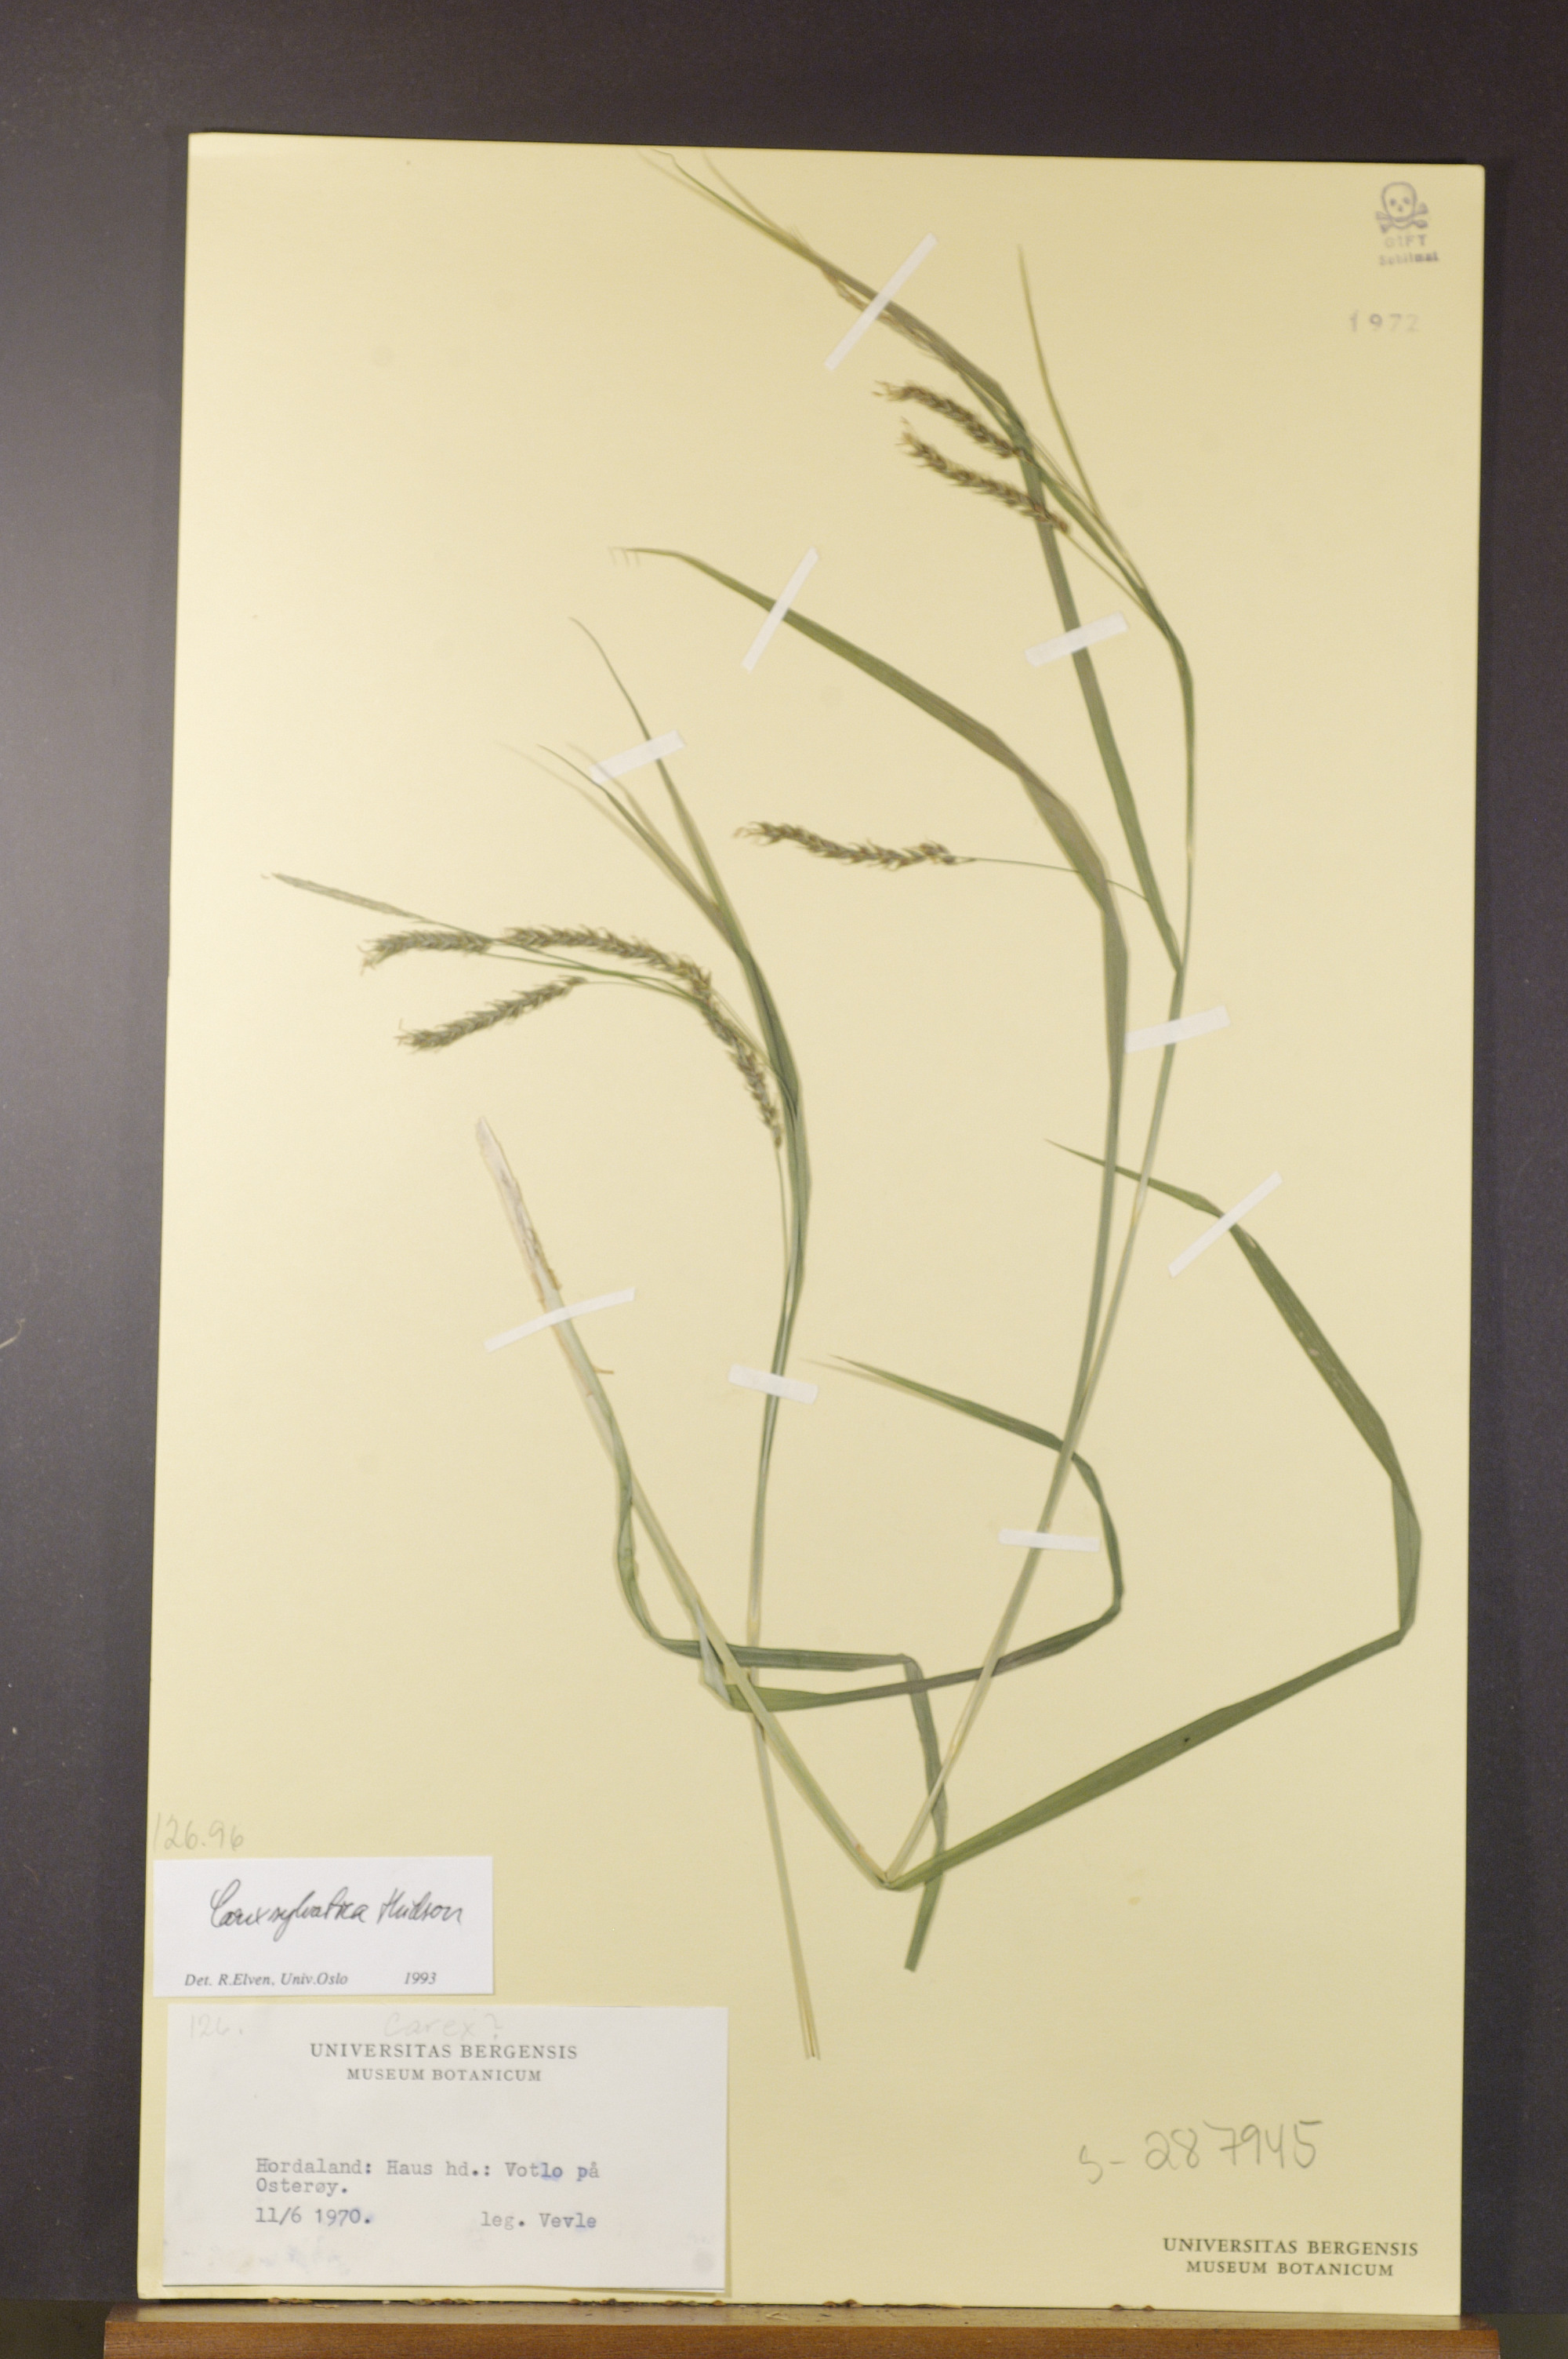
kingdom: Plantae
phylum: Tracheophyta
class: Liliopsida
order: Poales
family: Cyperaceae
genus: Carex
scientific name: Carex sylvatica
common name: Wood-sedge
